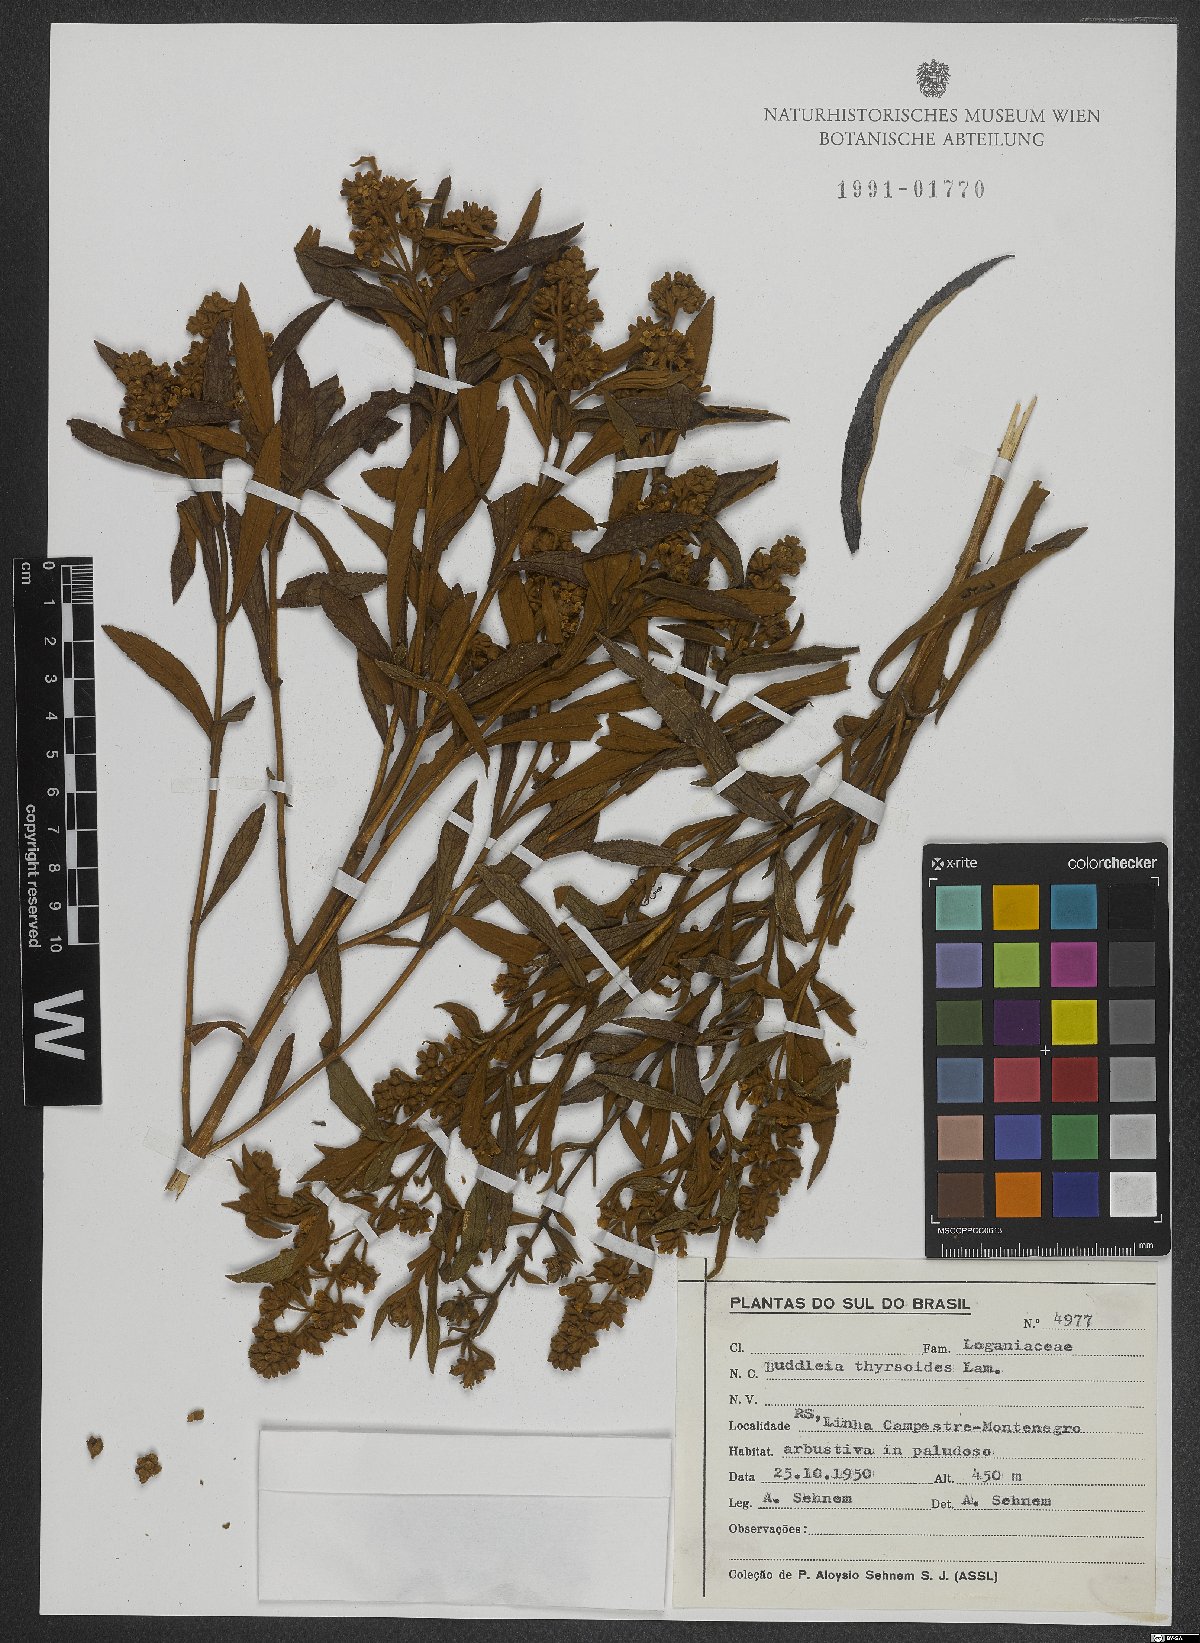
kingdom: Plantae
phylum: Tracheophyta
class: Magnoliopsida
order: Lamiales
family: Scrophulariaceae
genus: Buddleja
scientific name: Buddleja thyrsoides
